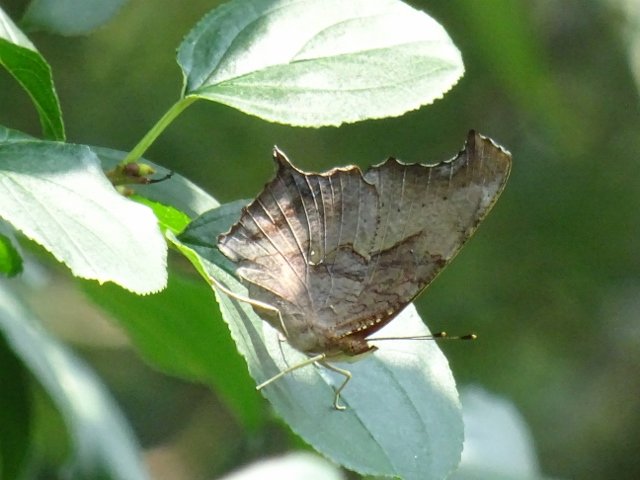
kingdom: Animalia
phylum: Arthropoda
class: Insecta
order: Lepidoptera
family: Nymphalidae
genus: Polygonia
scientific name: Polygonia interrogationis
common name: Question Mark
